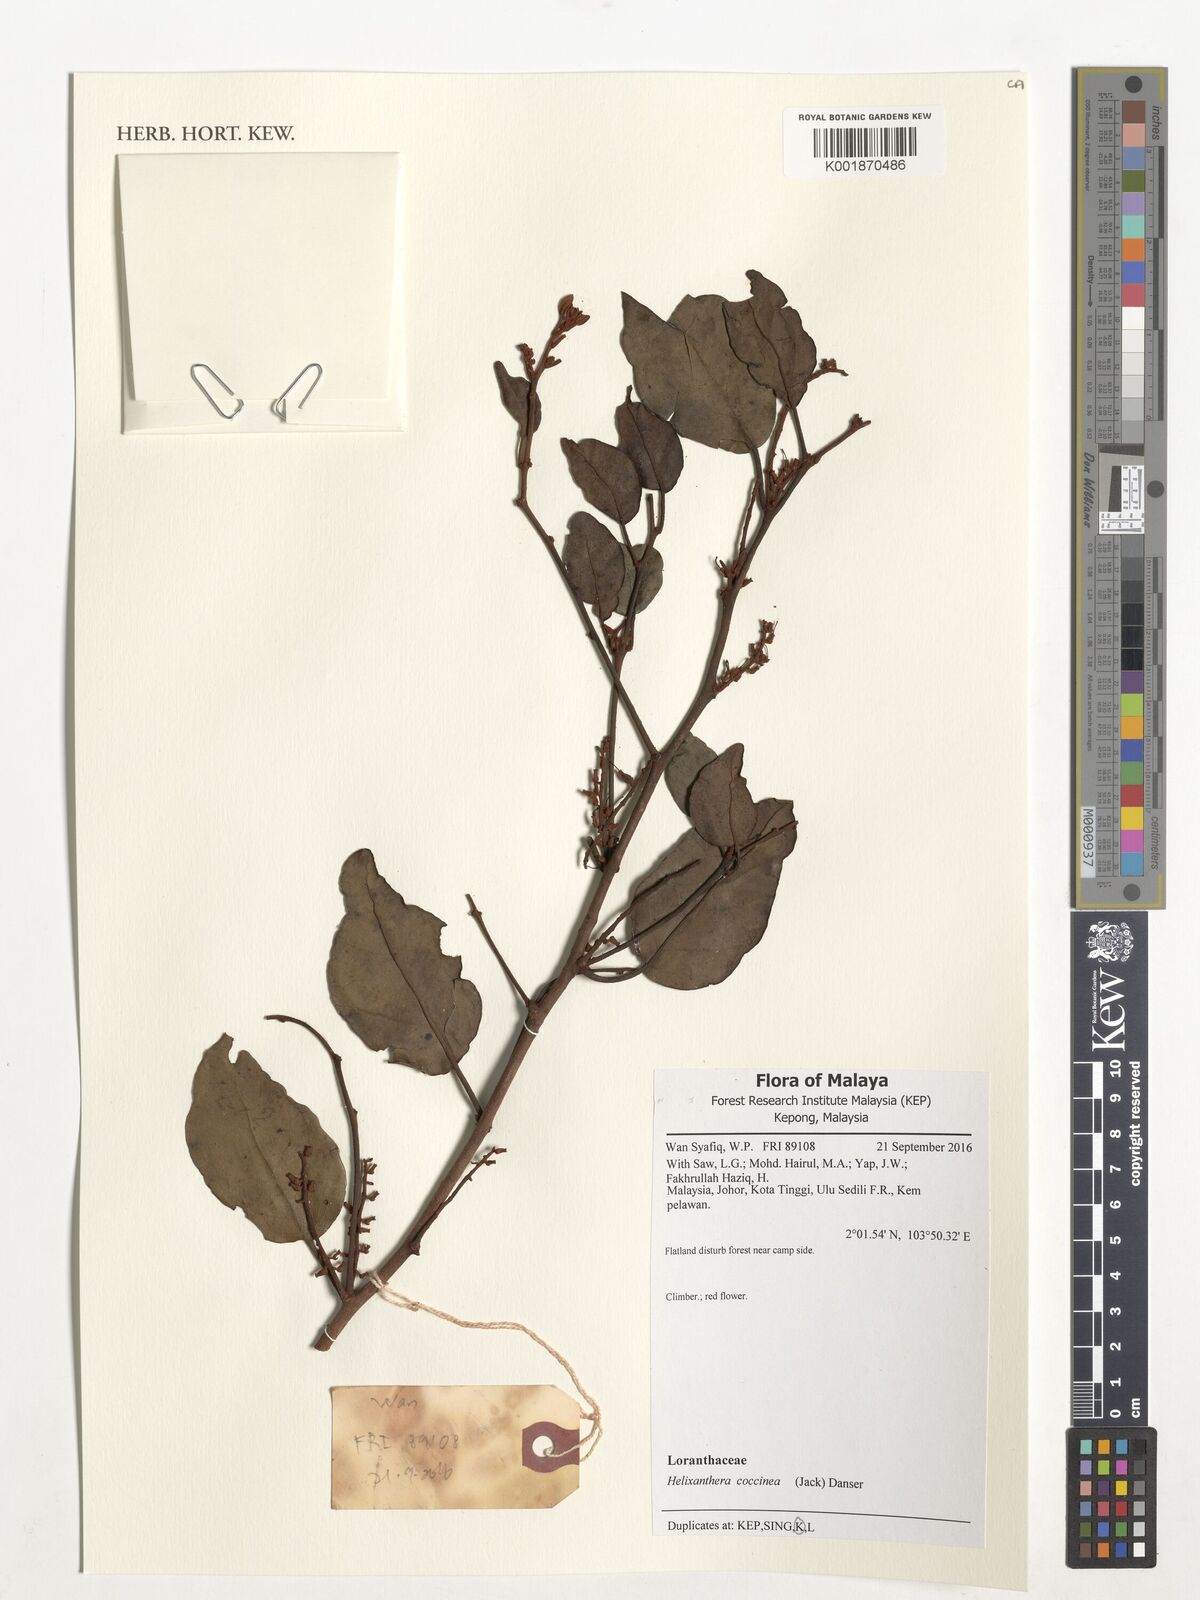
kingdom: Plantae
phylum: Tracheophyta
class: Magnoliopsida
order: Santalales
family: Loranthaceae
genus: Helixanthera
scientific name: Helixanthera coccinea
